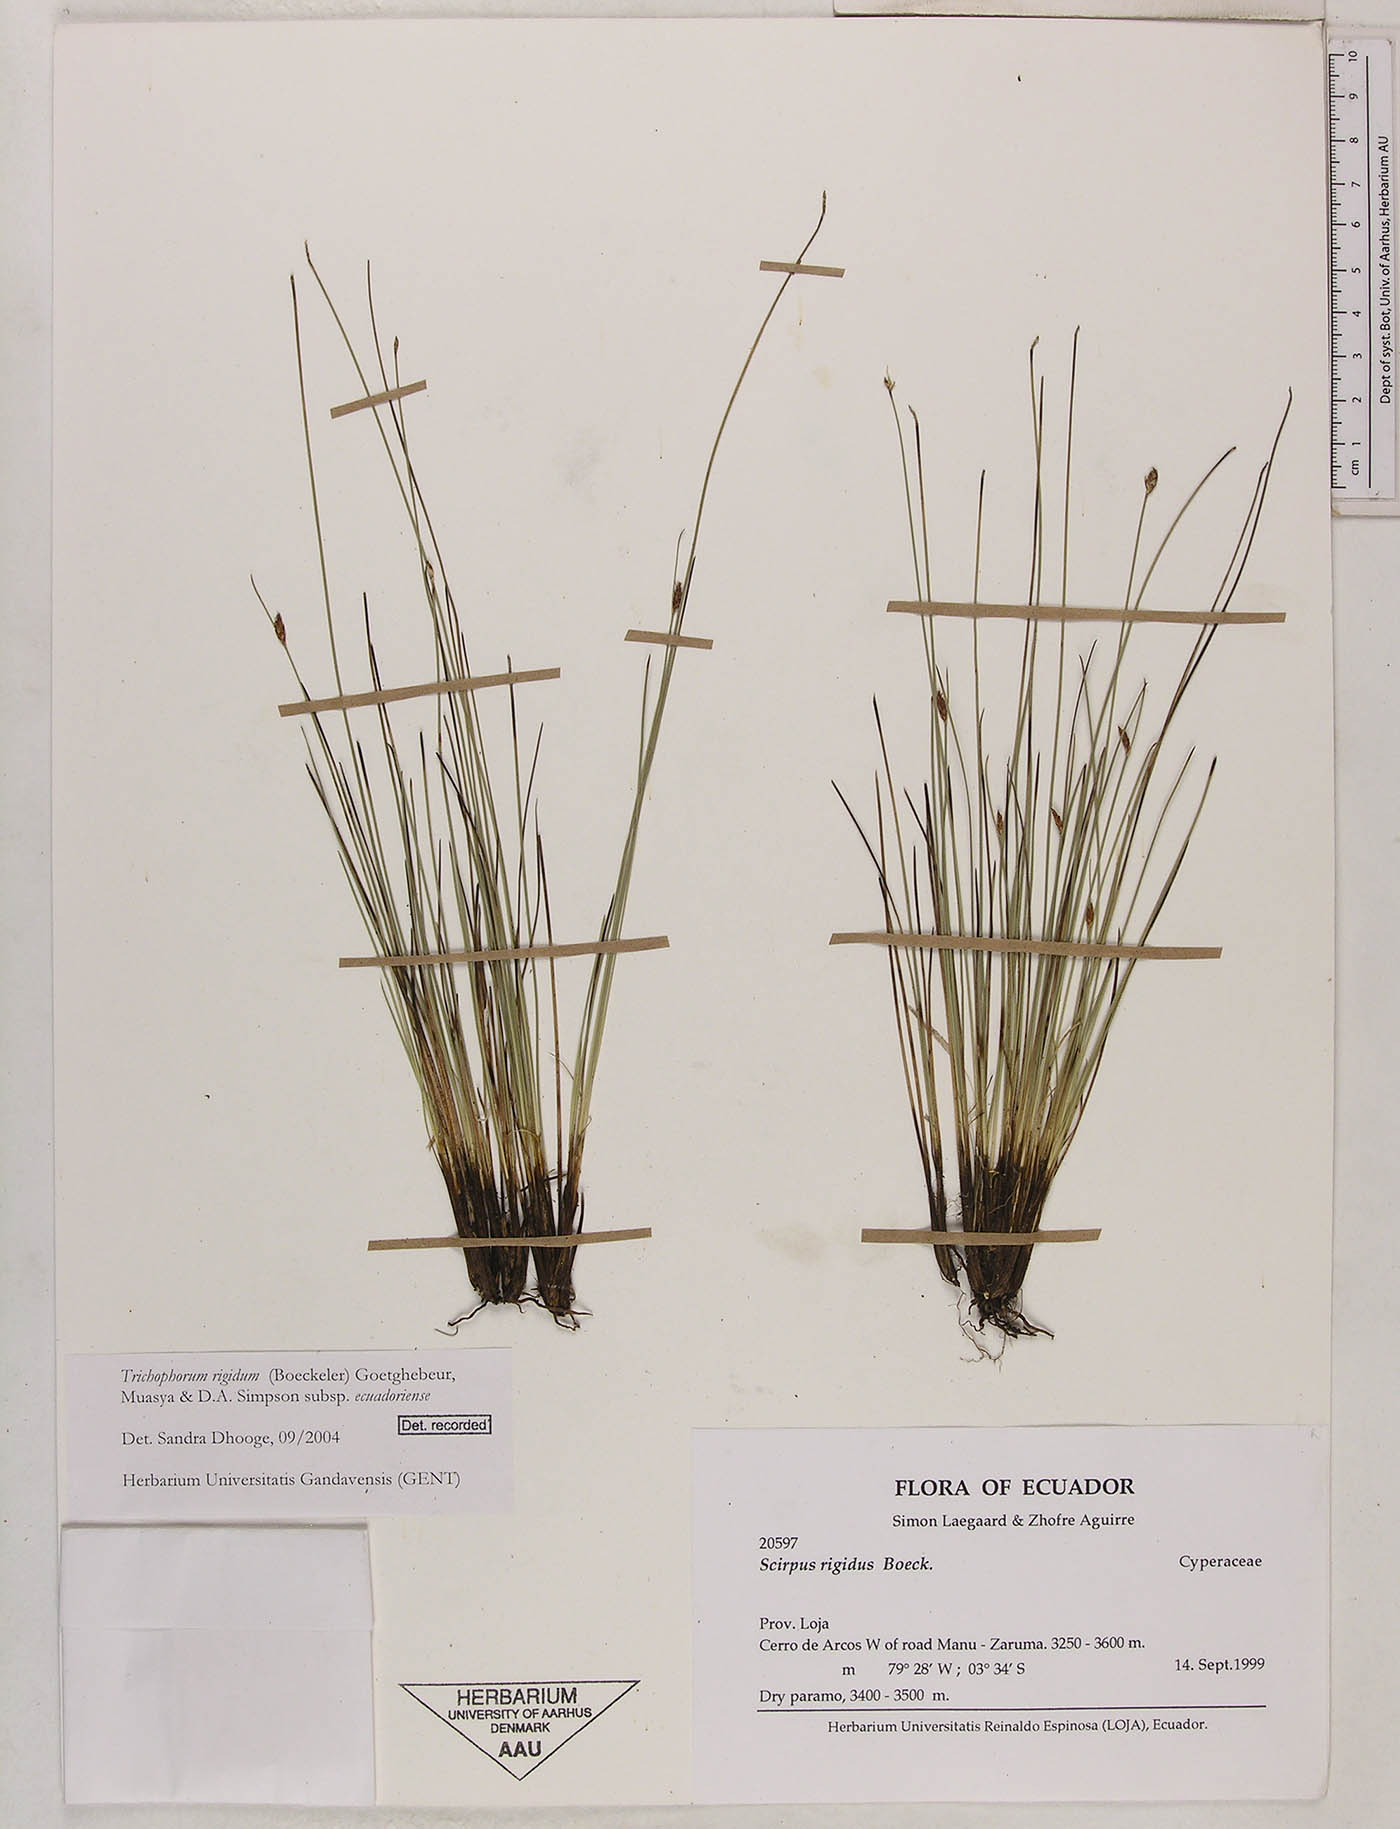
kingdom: Plantae
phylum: Tracheophyta
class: Liliopsida
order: Poales
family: Cyperaceae
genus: Trichophorum
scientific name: Trichophorum rigidum
